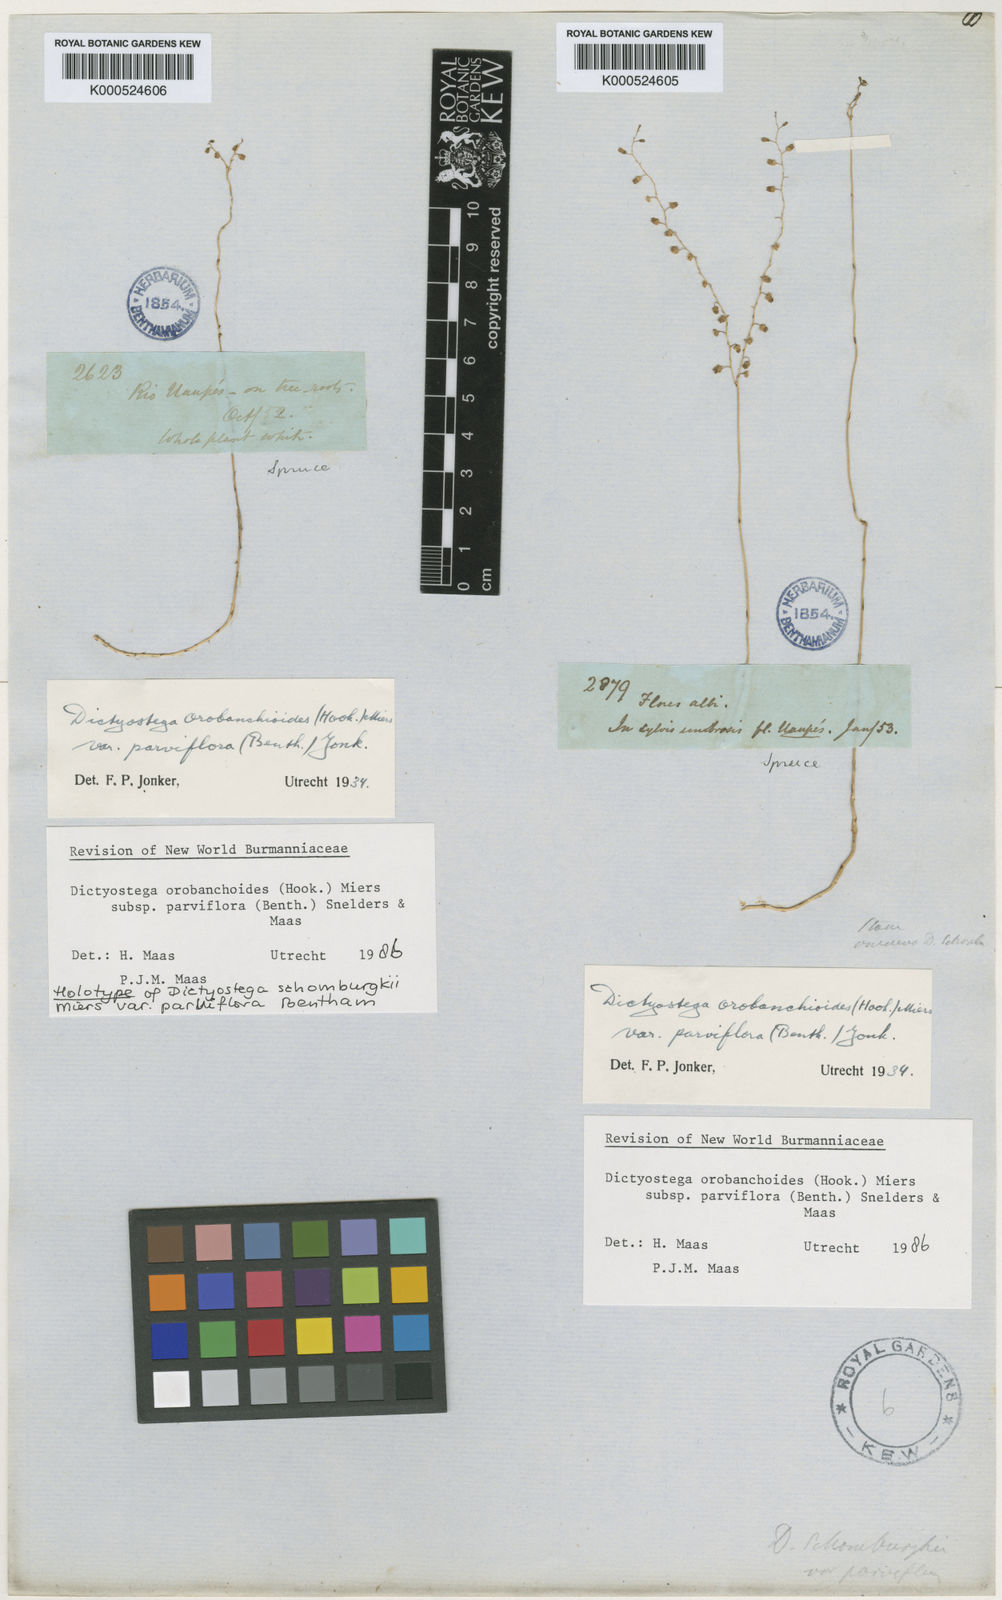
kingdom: Plantae
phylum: Tracheophyta
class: Liliopsida
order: Dioscoreales
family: Burmanniaceae
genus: Dictyostega
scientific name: Dictyostega orobanchoides
